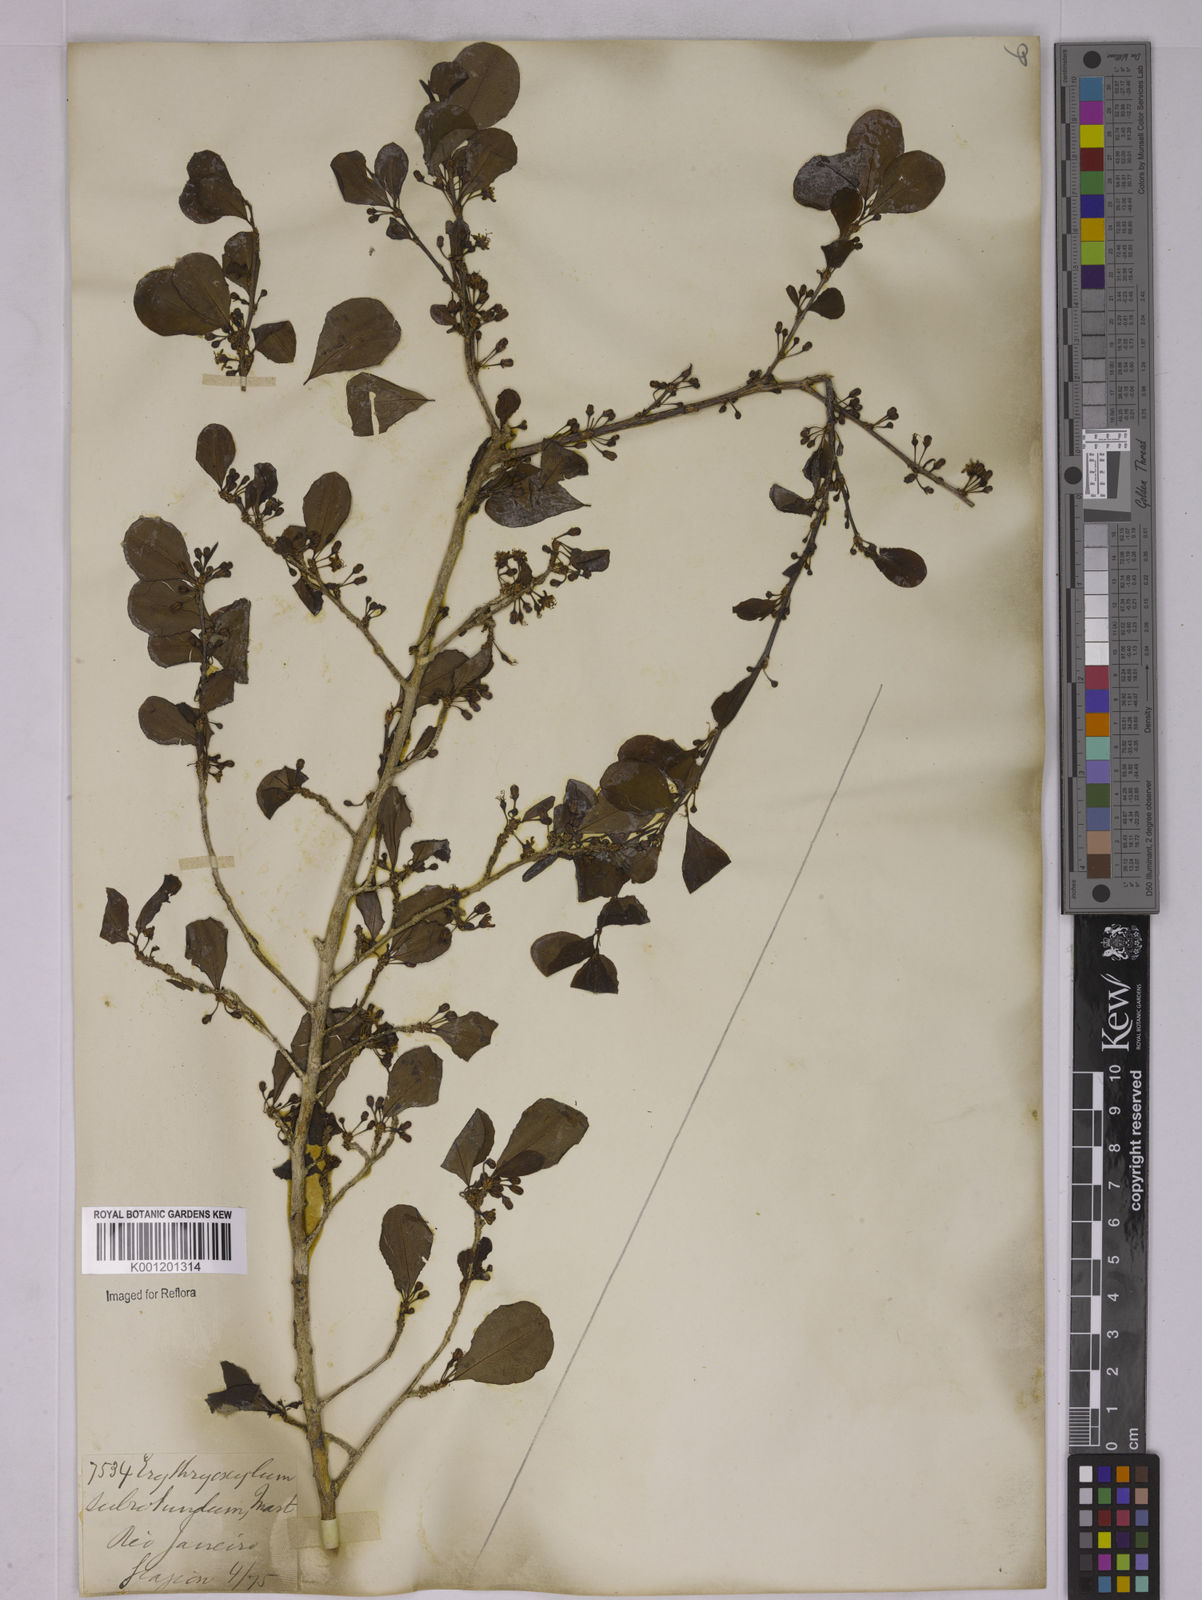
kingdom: Plantae
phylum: Tracheophyta
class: Magnoliopsida
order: Malpighiales
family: Erythroxylaceae
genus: Erythroxylum
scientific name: Erythroxylum subrotundum
